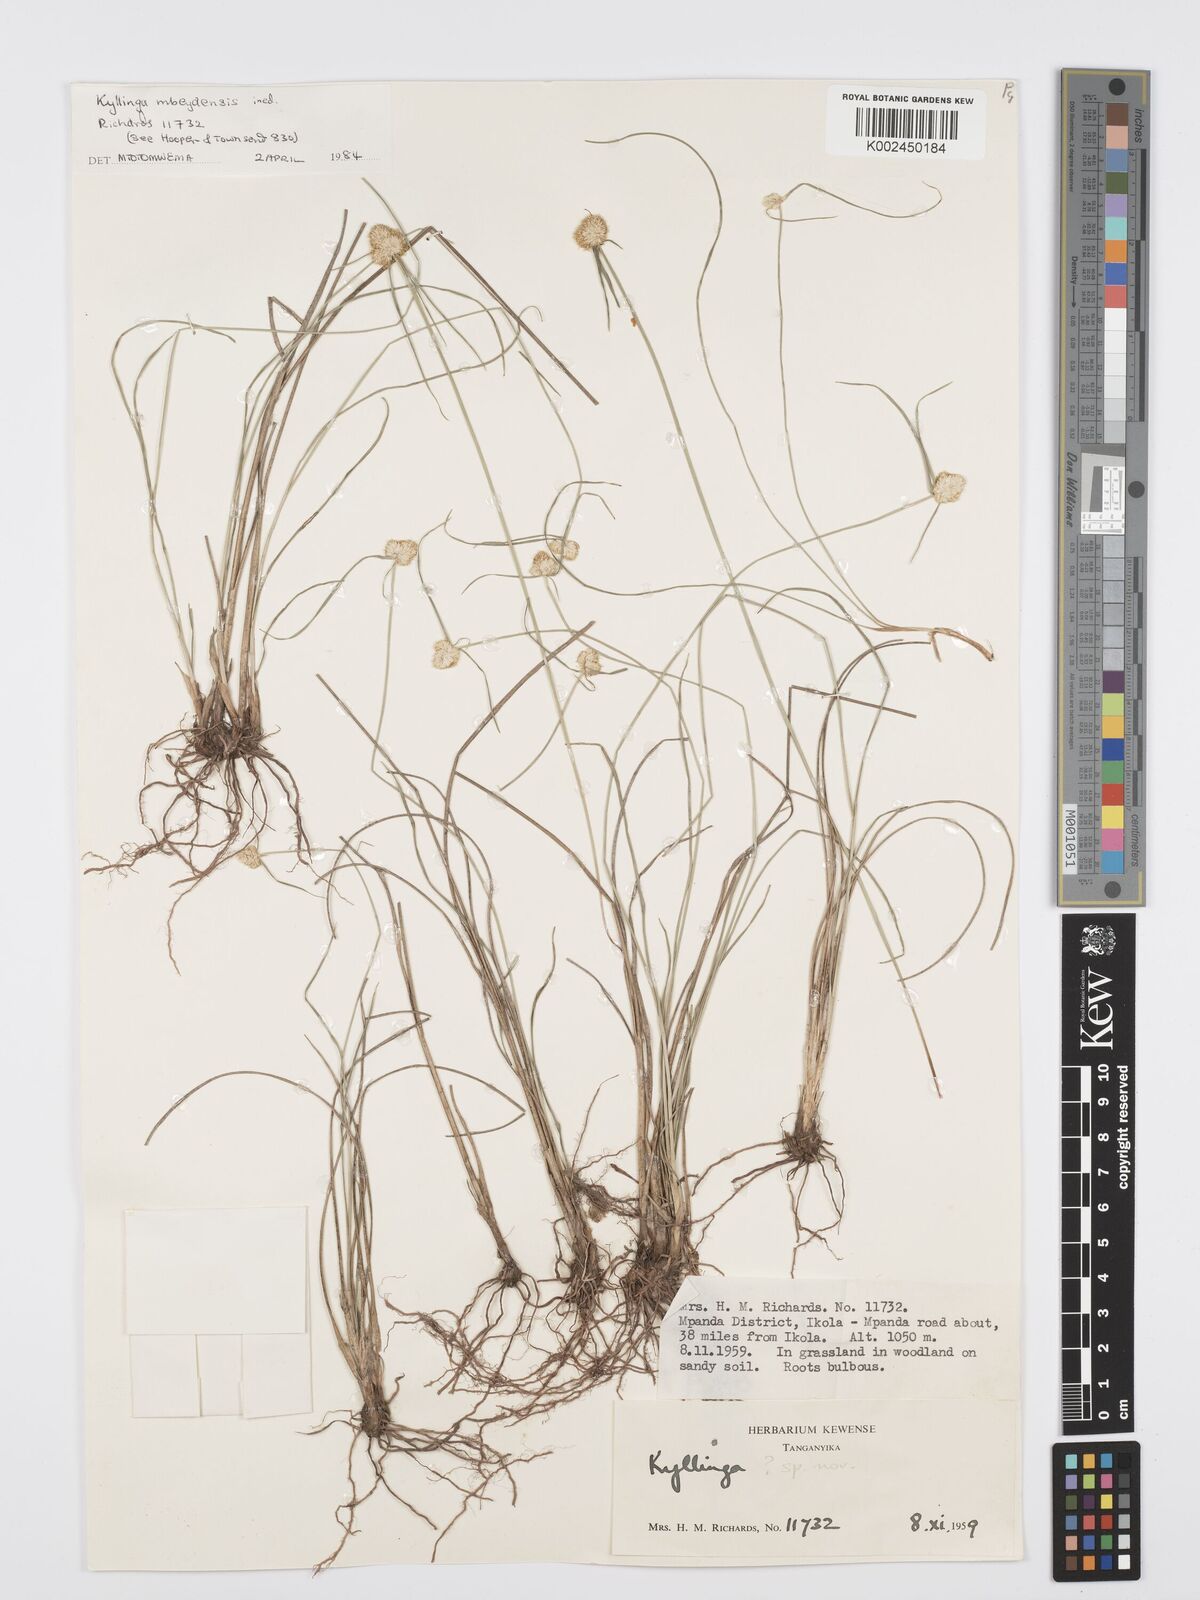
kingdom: Plantae
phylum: Tracheophyta
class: Liliopsida
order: Poales
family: Cyperaceae
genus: Cyperus
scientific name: Cyperus
